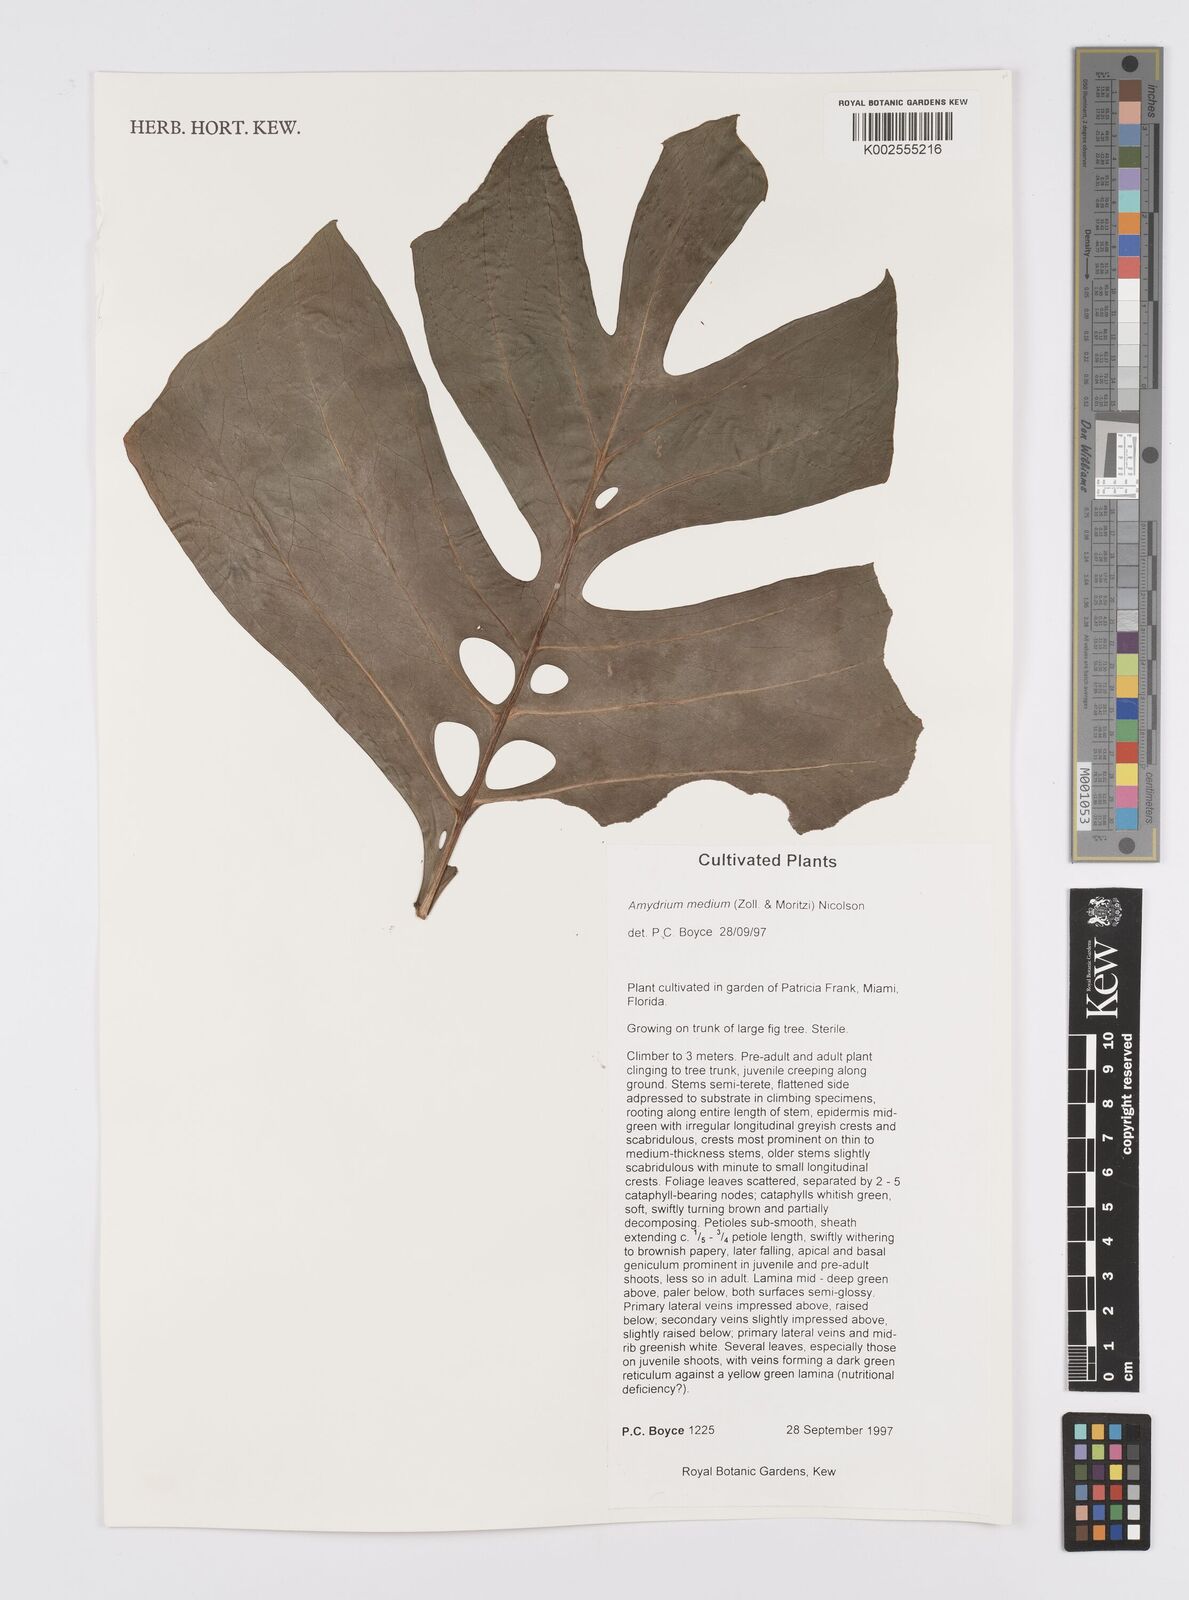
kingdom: Plantae
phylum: Tracheophyta
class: Liliopsida
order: Alismatales
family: Araceae
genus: Amydrium
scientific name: Amydrium medium
